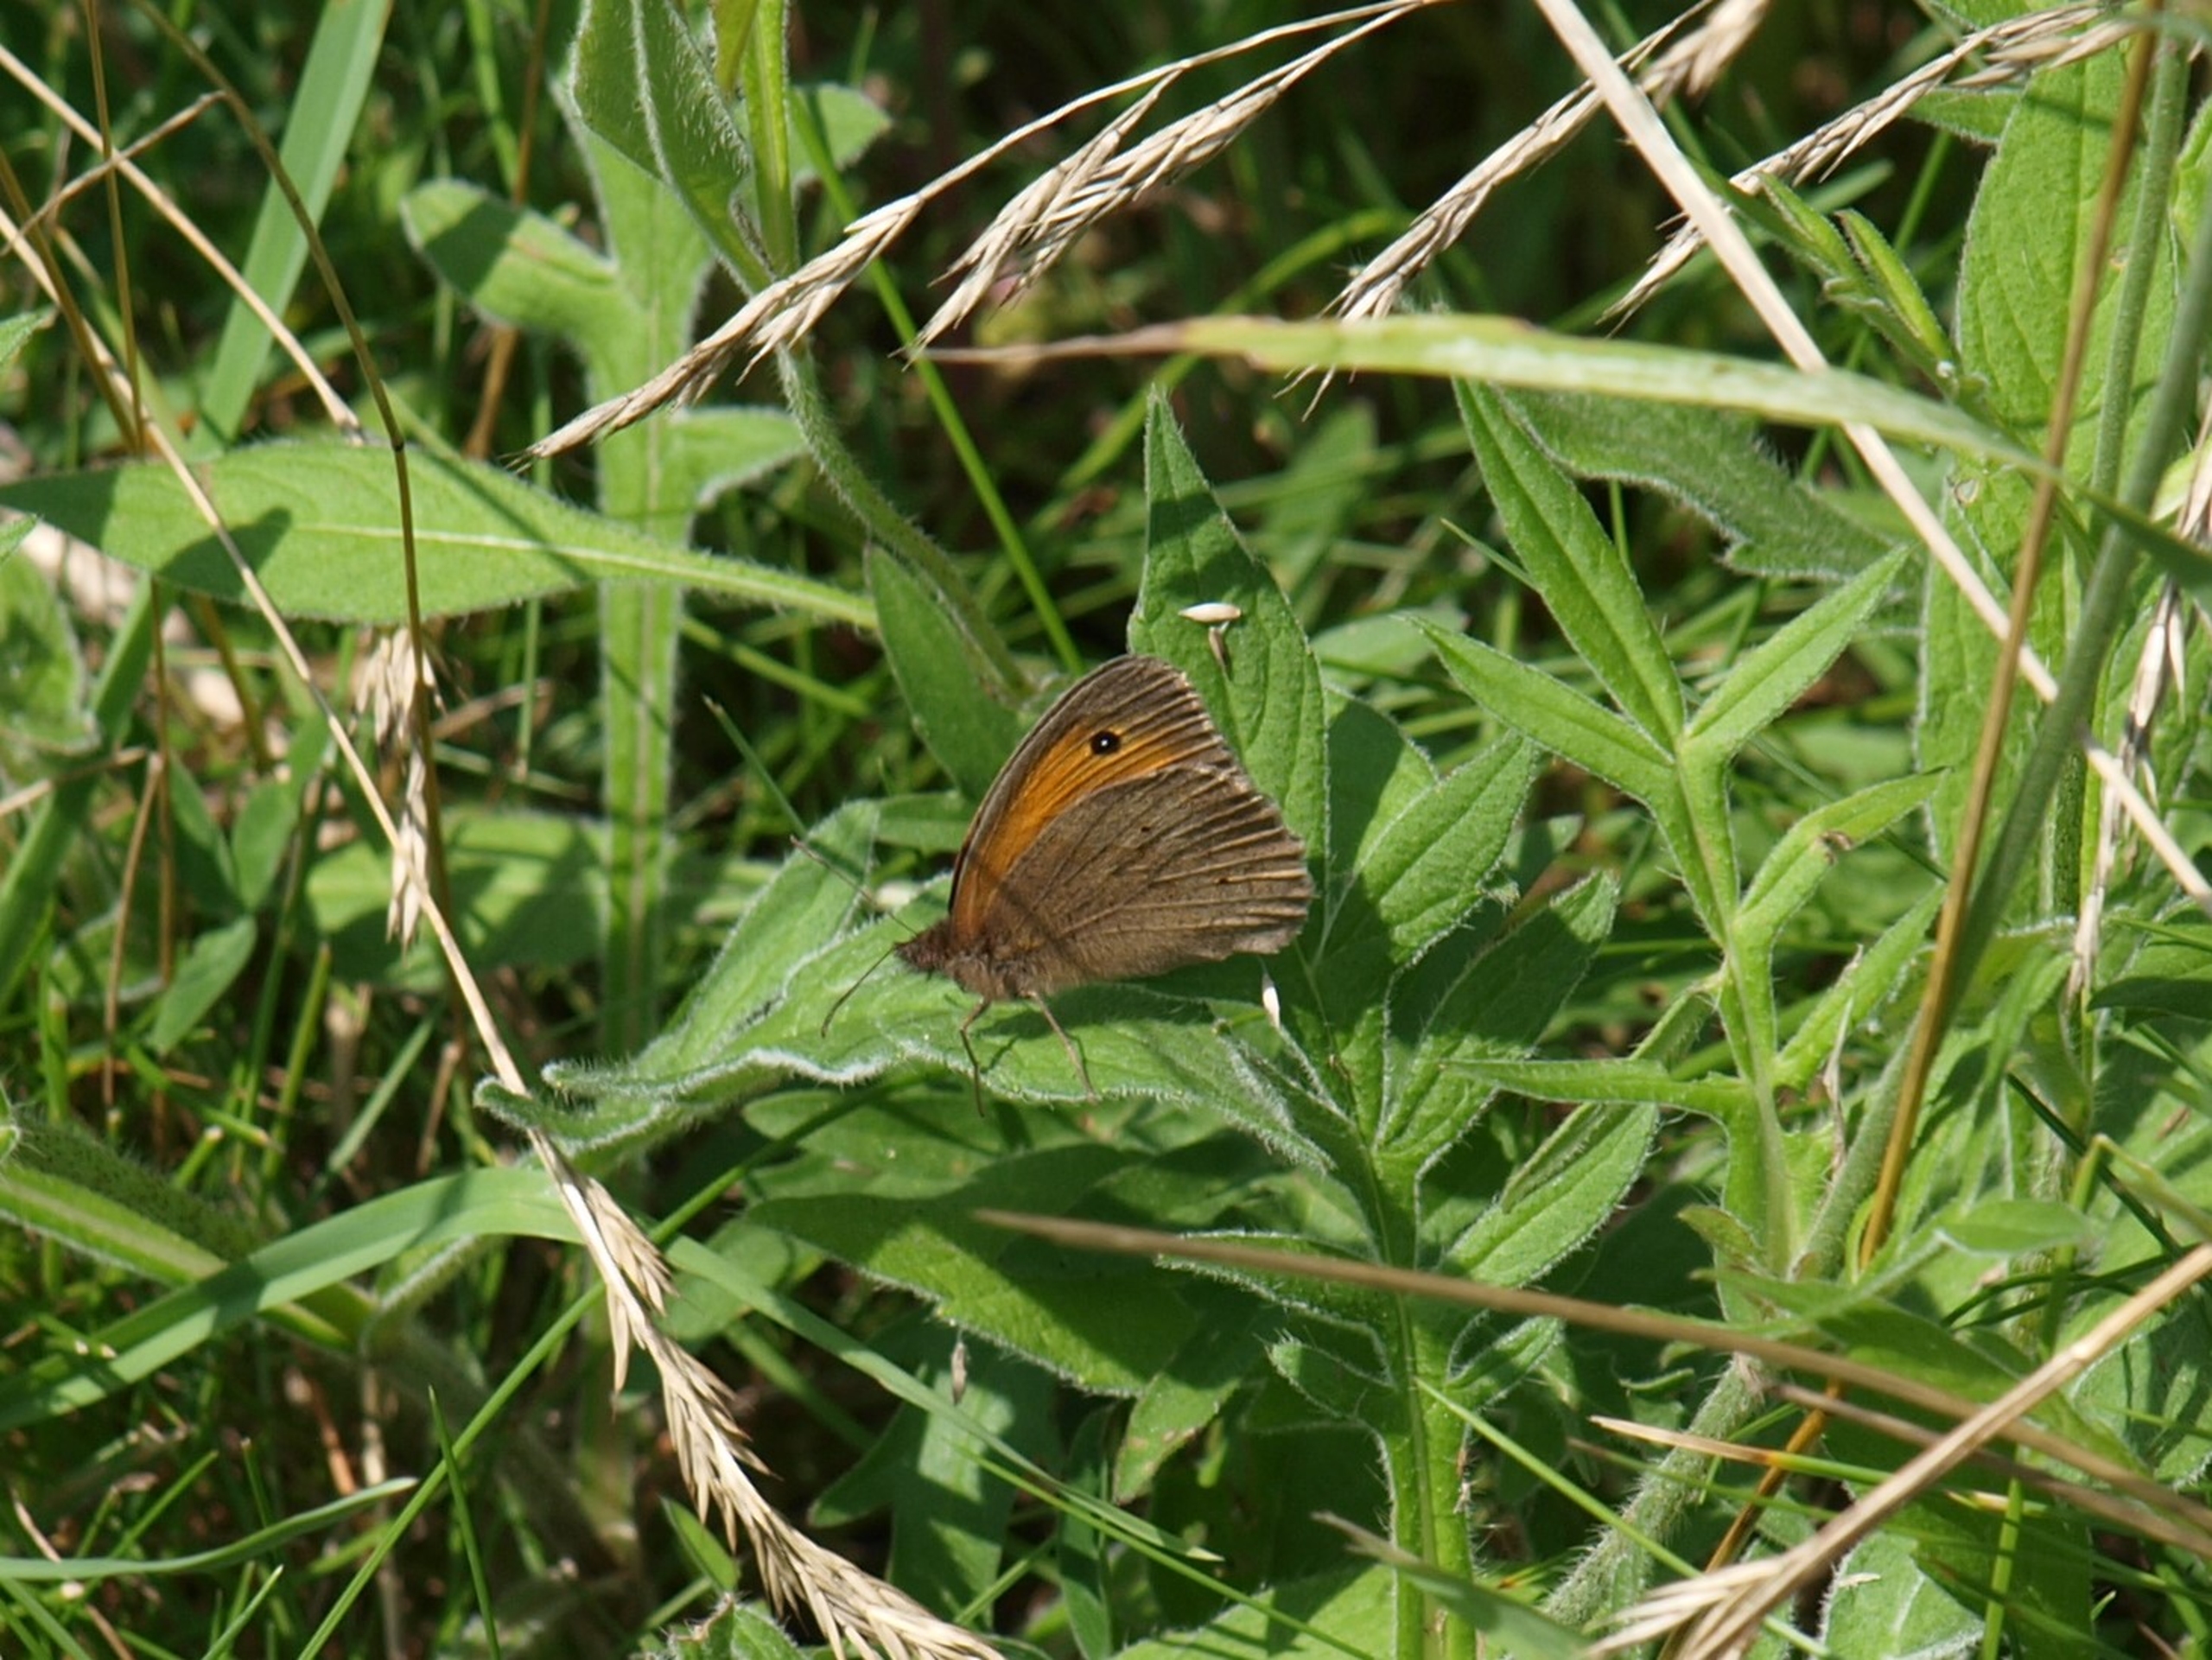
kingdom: Animalia
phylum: Arthropoda
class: Insecta
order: Lepidoptera
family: Nymphalidae
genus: Maniola
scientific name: Maniola jurtina
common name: Græsrandøje
